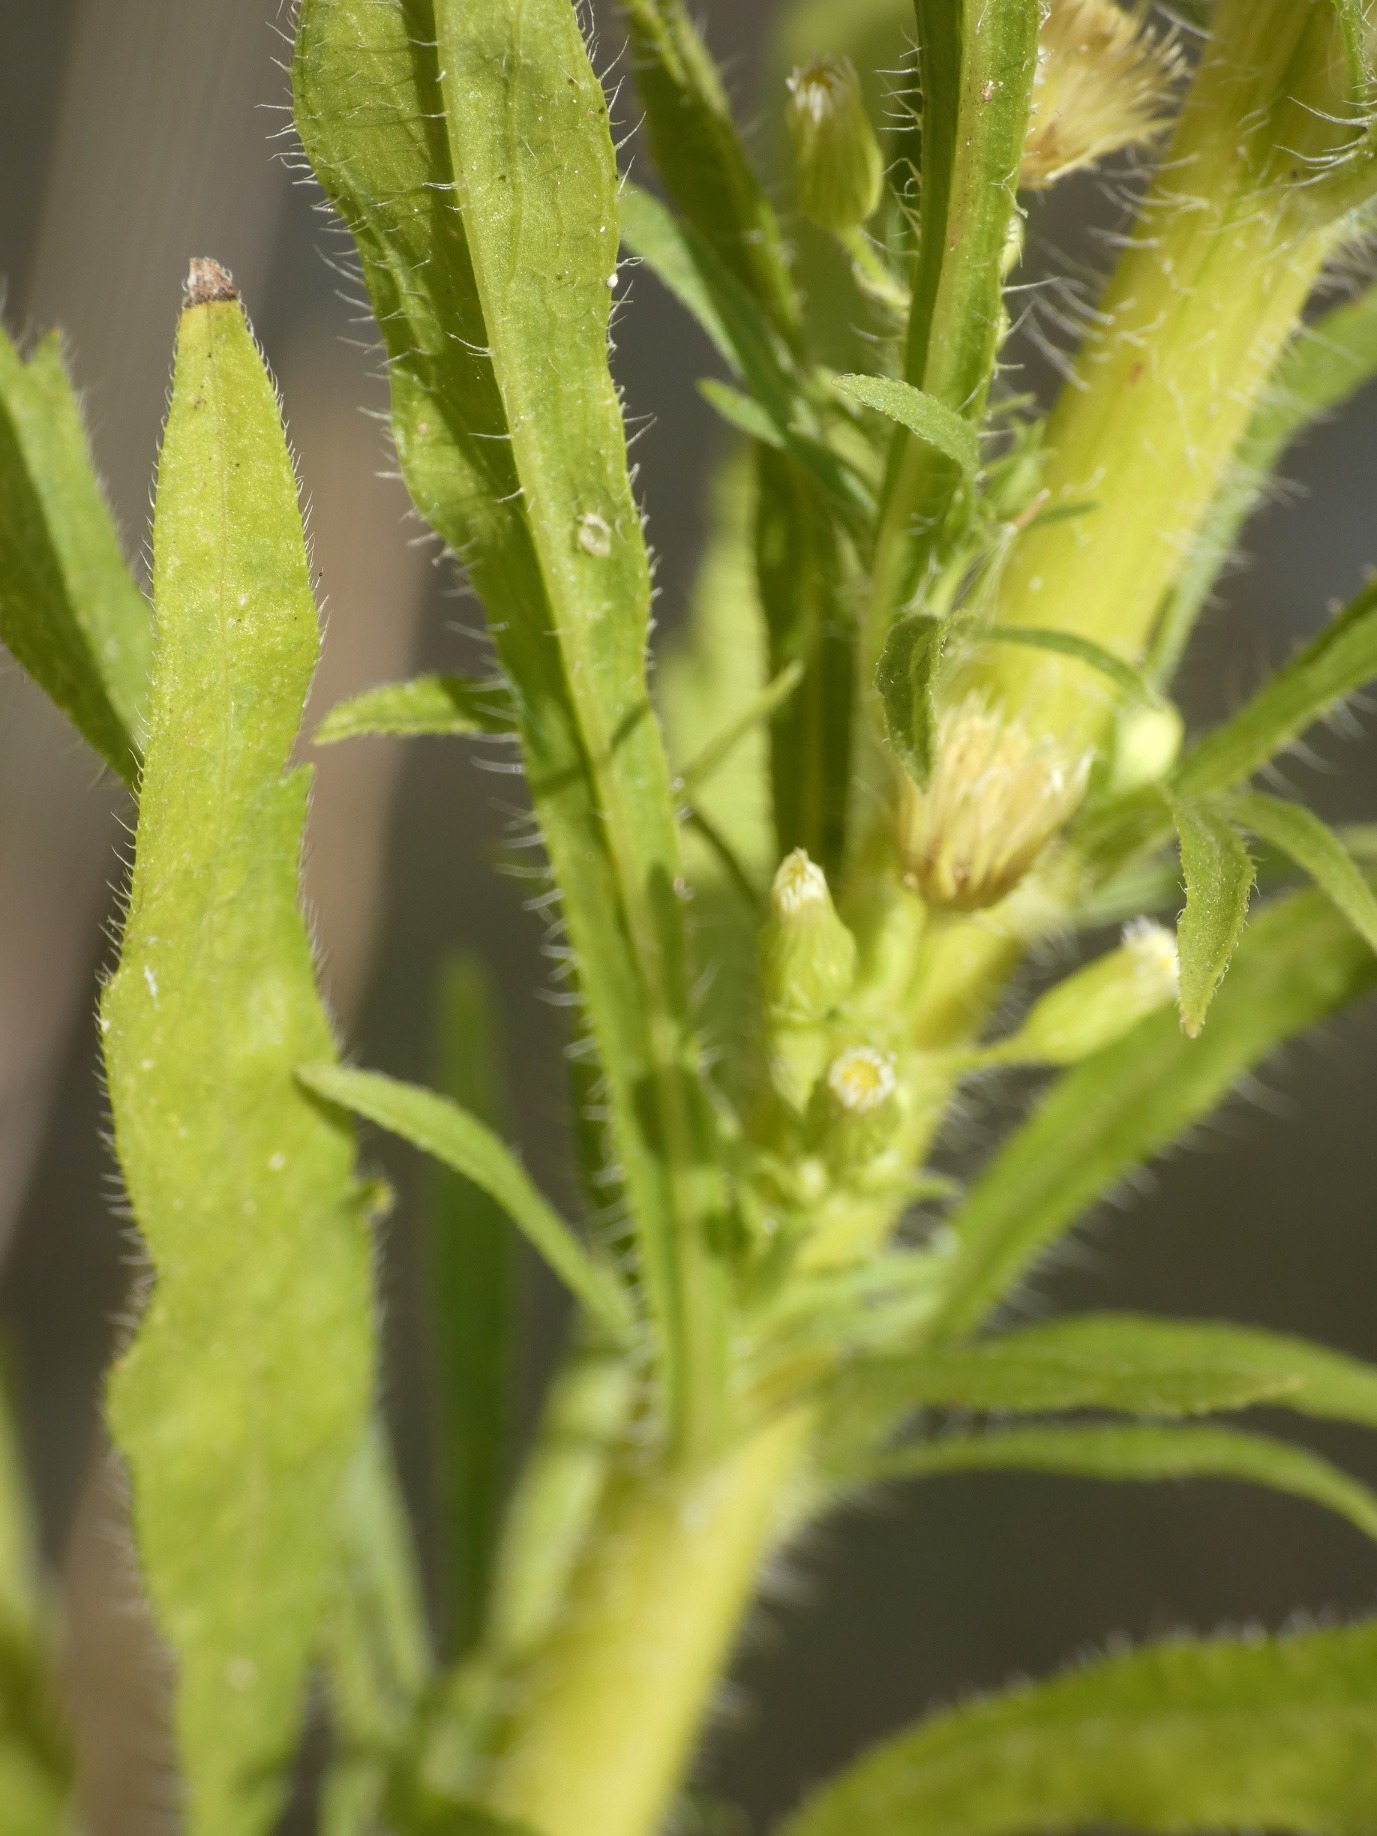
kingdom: Plantae
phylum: Tracheophyta
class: Magnoliopsida
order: Asterales
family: Asteraceae
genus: Erigeron
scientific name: Erigeron canadensis
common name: Kanadisk bakkestjerne
